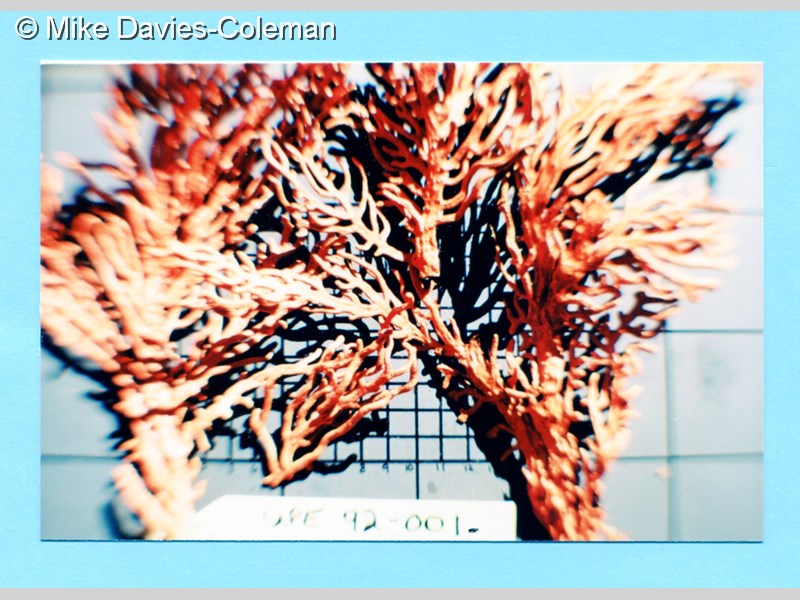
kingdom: Animalia
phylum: Cnidaria
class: Anthozoa
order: Malacalcyonacea
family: Gorgoniidae
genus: Leptogorgia
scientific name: Leptogorgia palma
